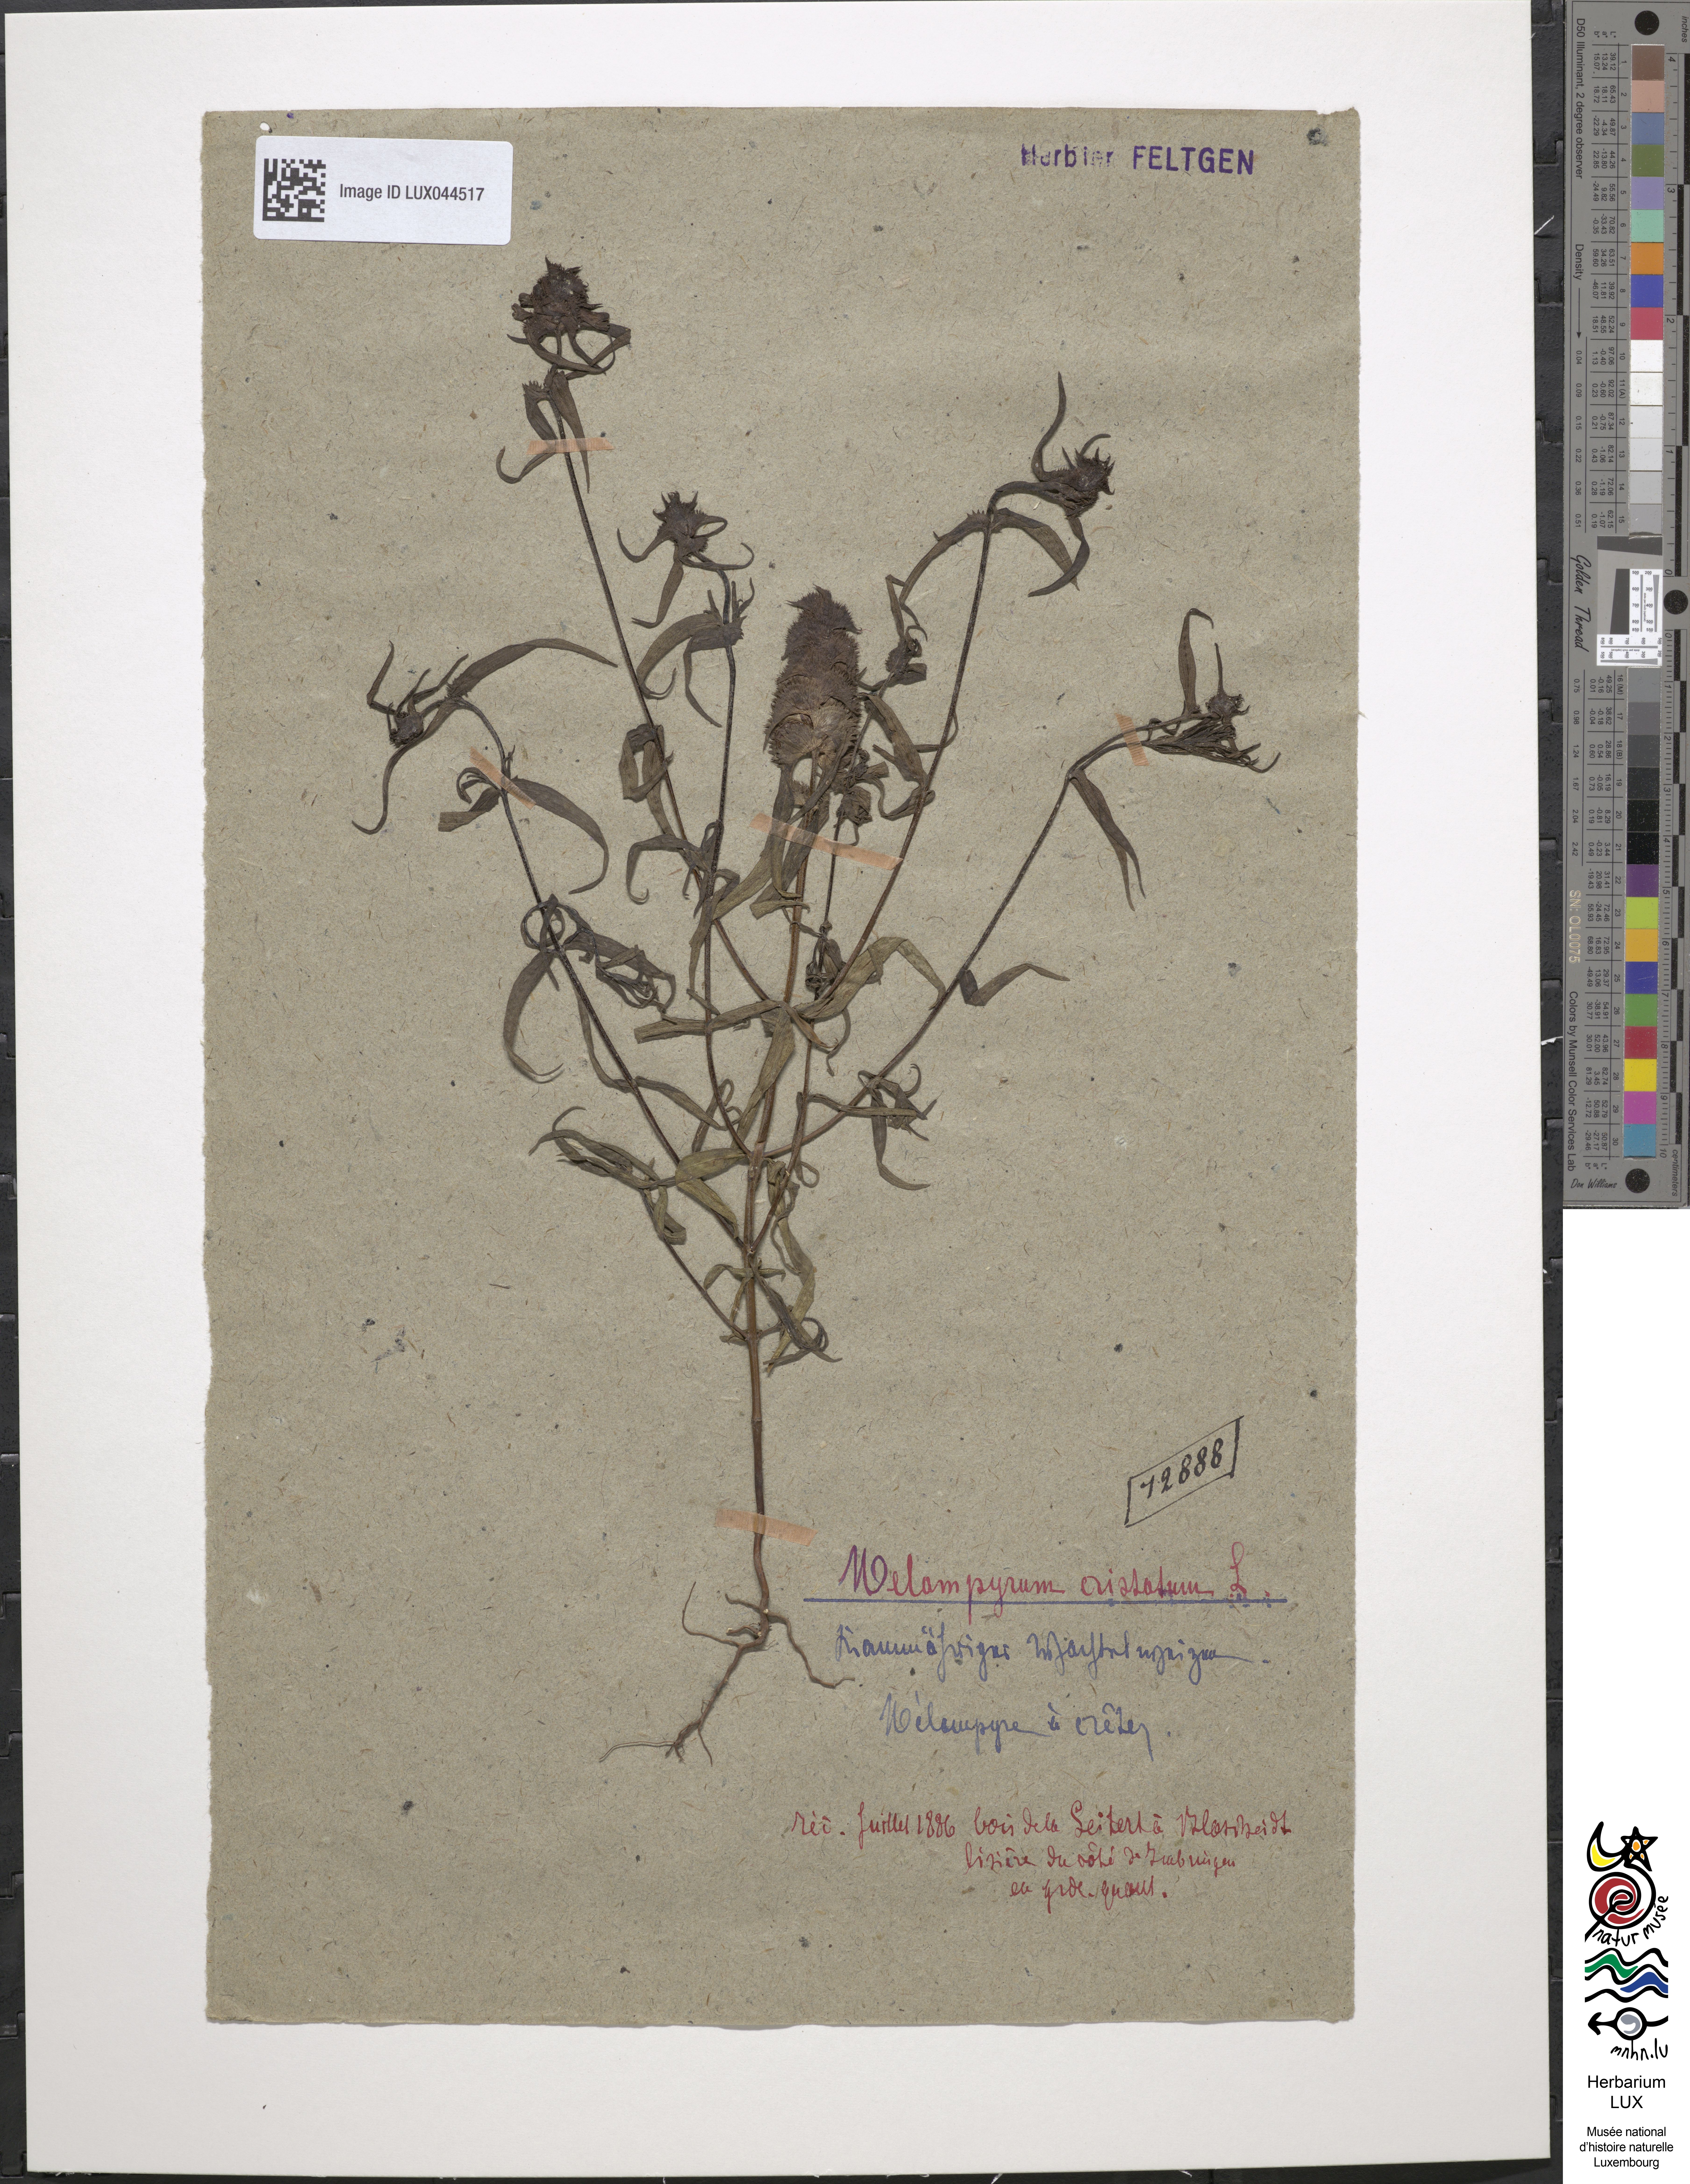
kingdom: Plantae
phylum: Tracheophyta
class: Magnoliopsida
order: Lamiales
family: Orobanchaceae
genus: Melampyrum
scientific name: Melampyrum cristatum
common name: Crested cow-wheat
